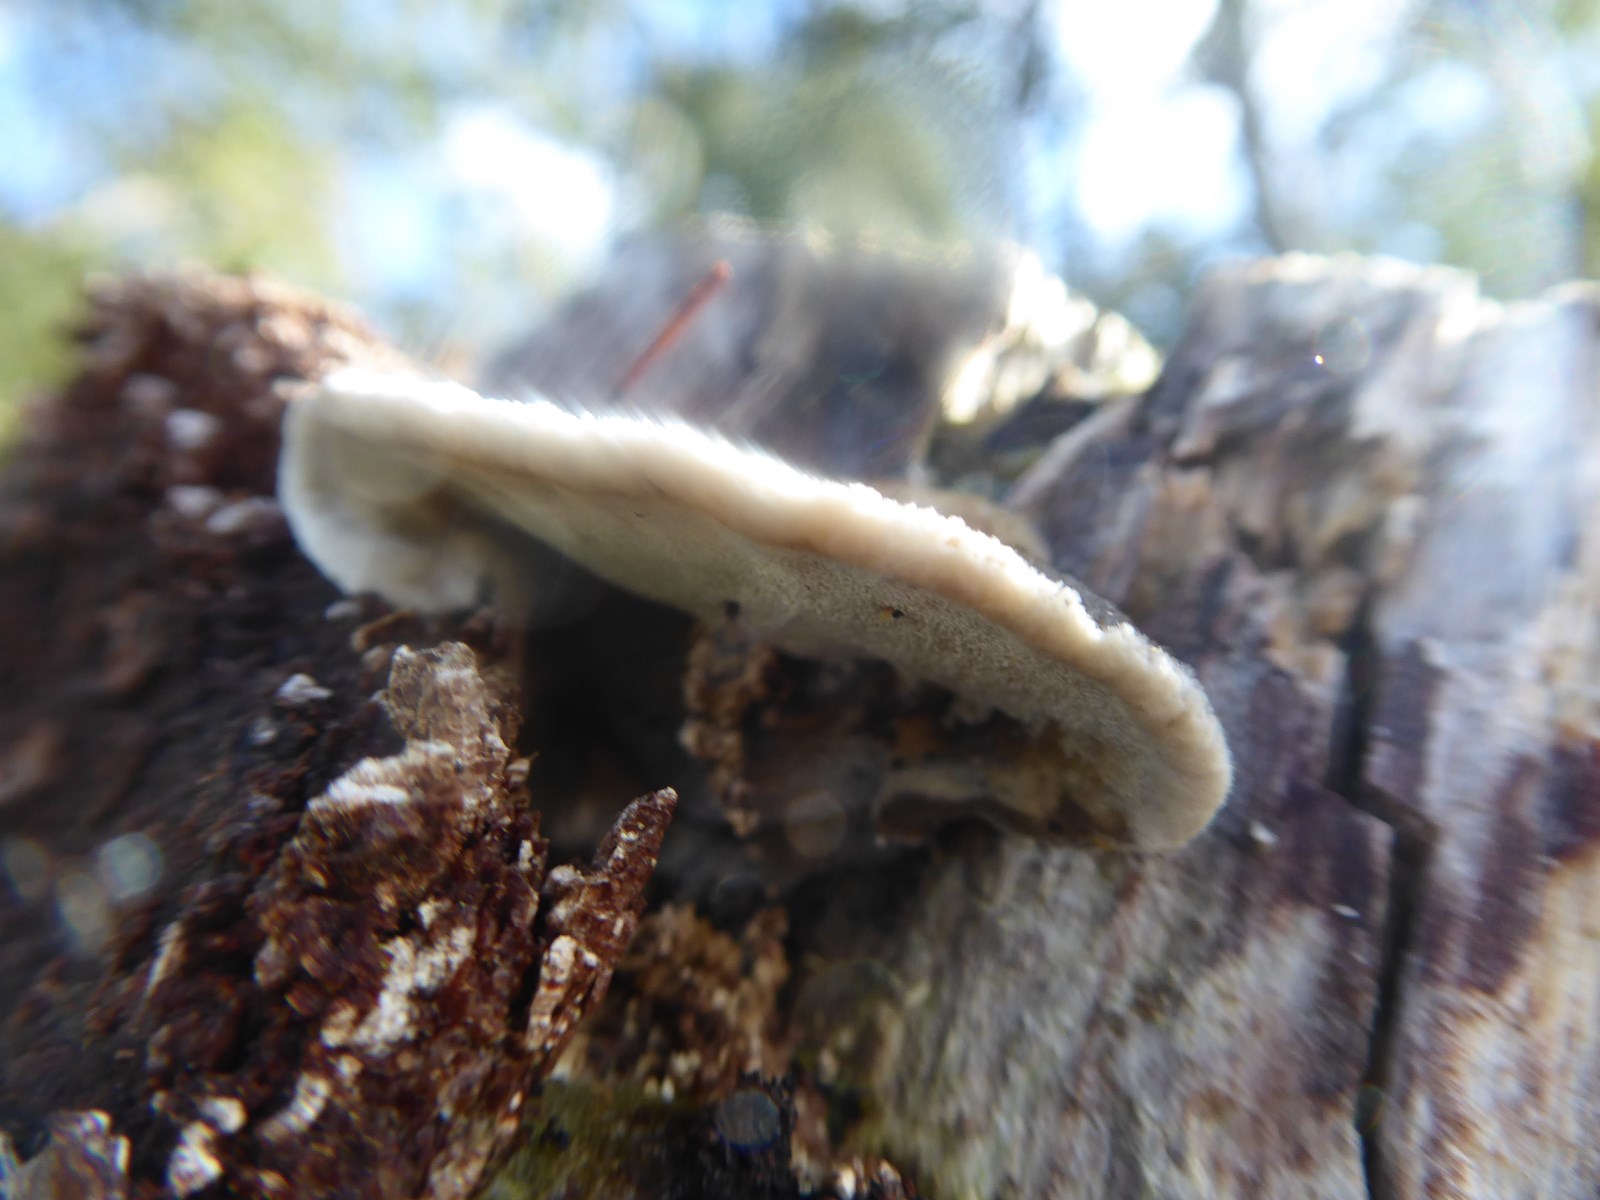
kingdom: Fungi
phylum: Basidiomycota
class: Agaricomycetes
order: Polyporales
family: Phanerochaetaceae
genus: Bjerkandera
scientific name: Bjerkandera adusta
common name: sveden sodporesvamp
